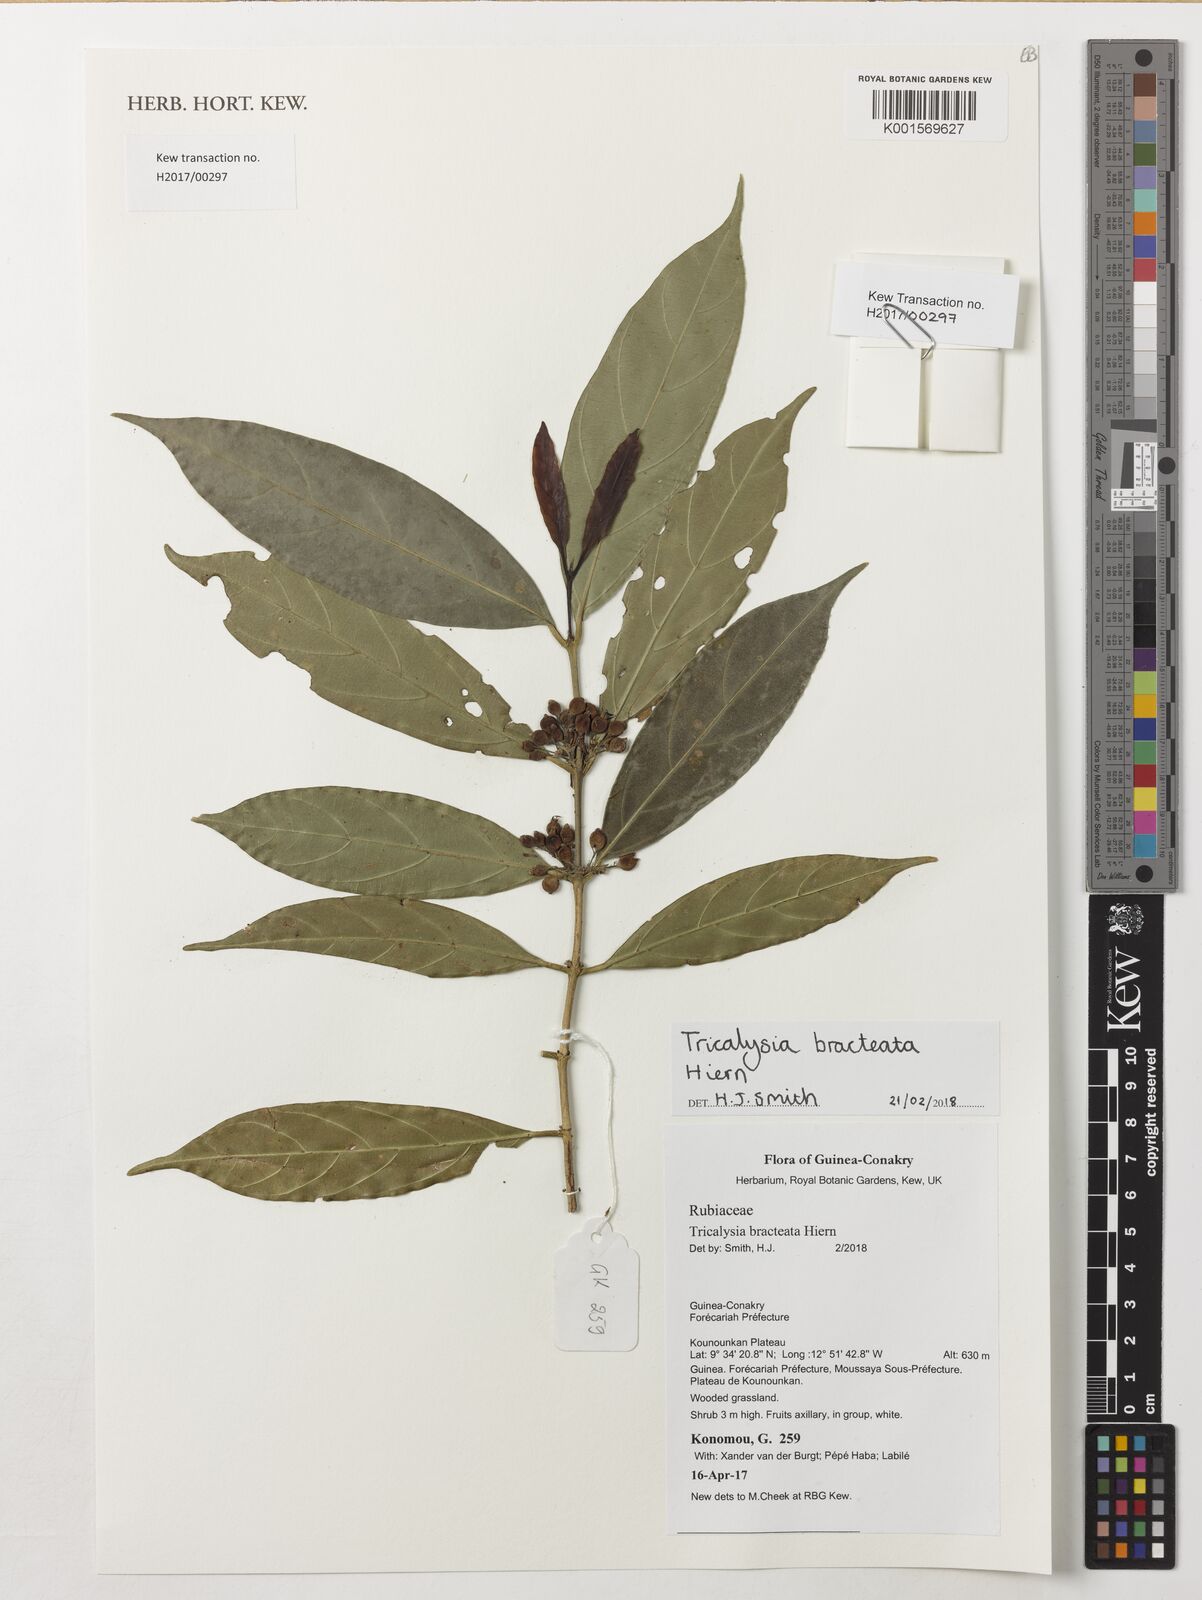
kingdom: Plantae
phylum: Tracheophyta
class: Magnoliopsida
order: Gentianales
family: Rubiaceae
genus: Empogona
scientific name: Empogona bracteata
